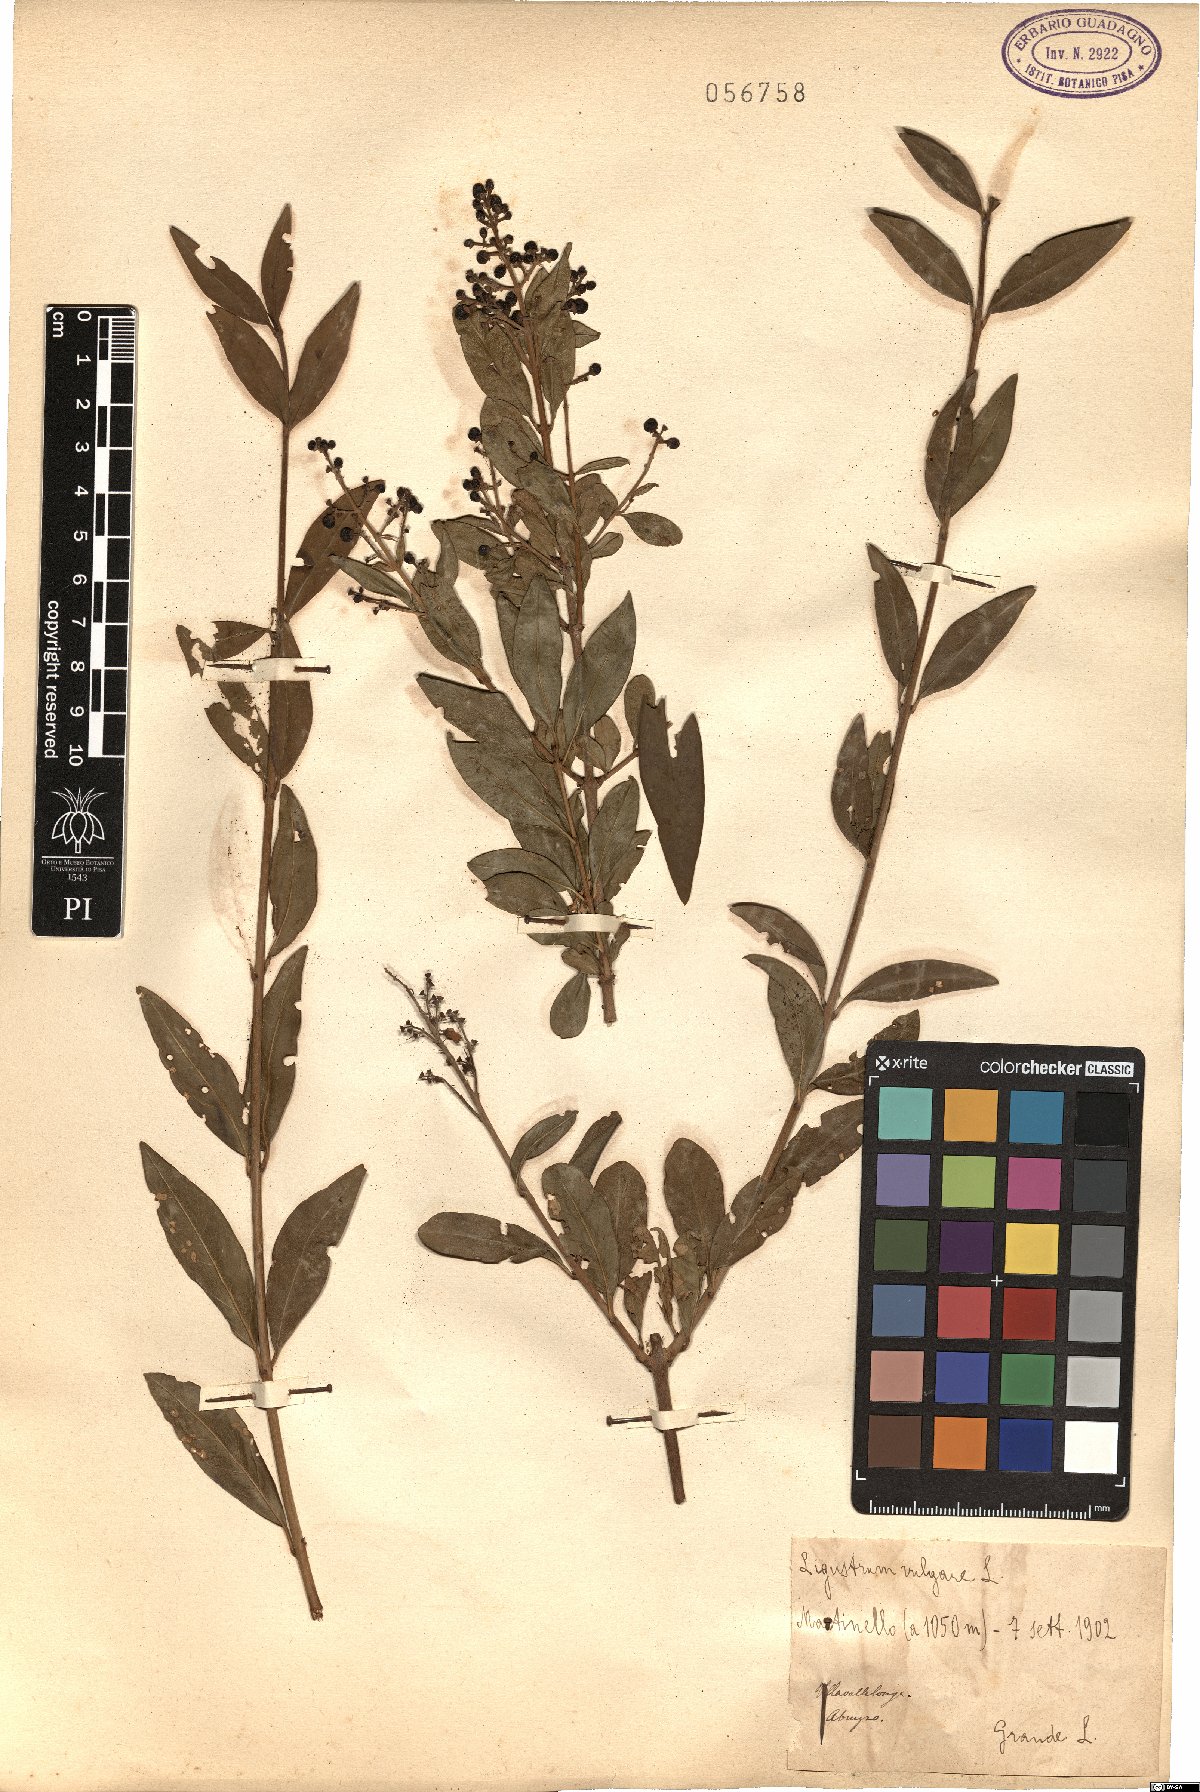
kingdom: Plantae
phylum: Tracheophyta
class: Magnoliopsida
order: Lamiales
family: Oleaceae
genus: Ligustrum
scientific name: Ligustrum vulgare
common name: Wild privet
